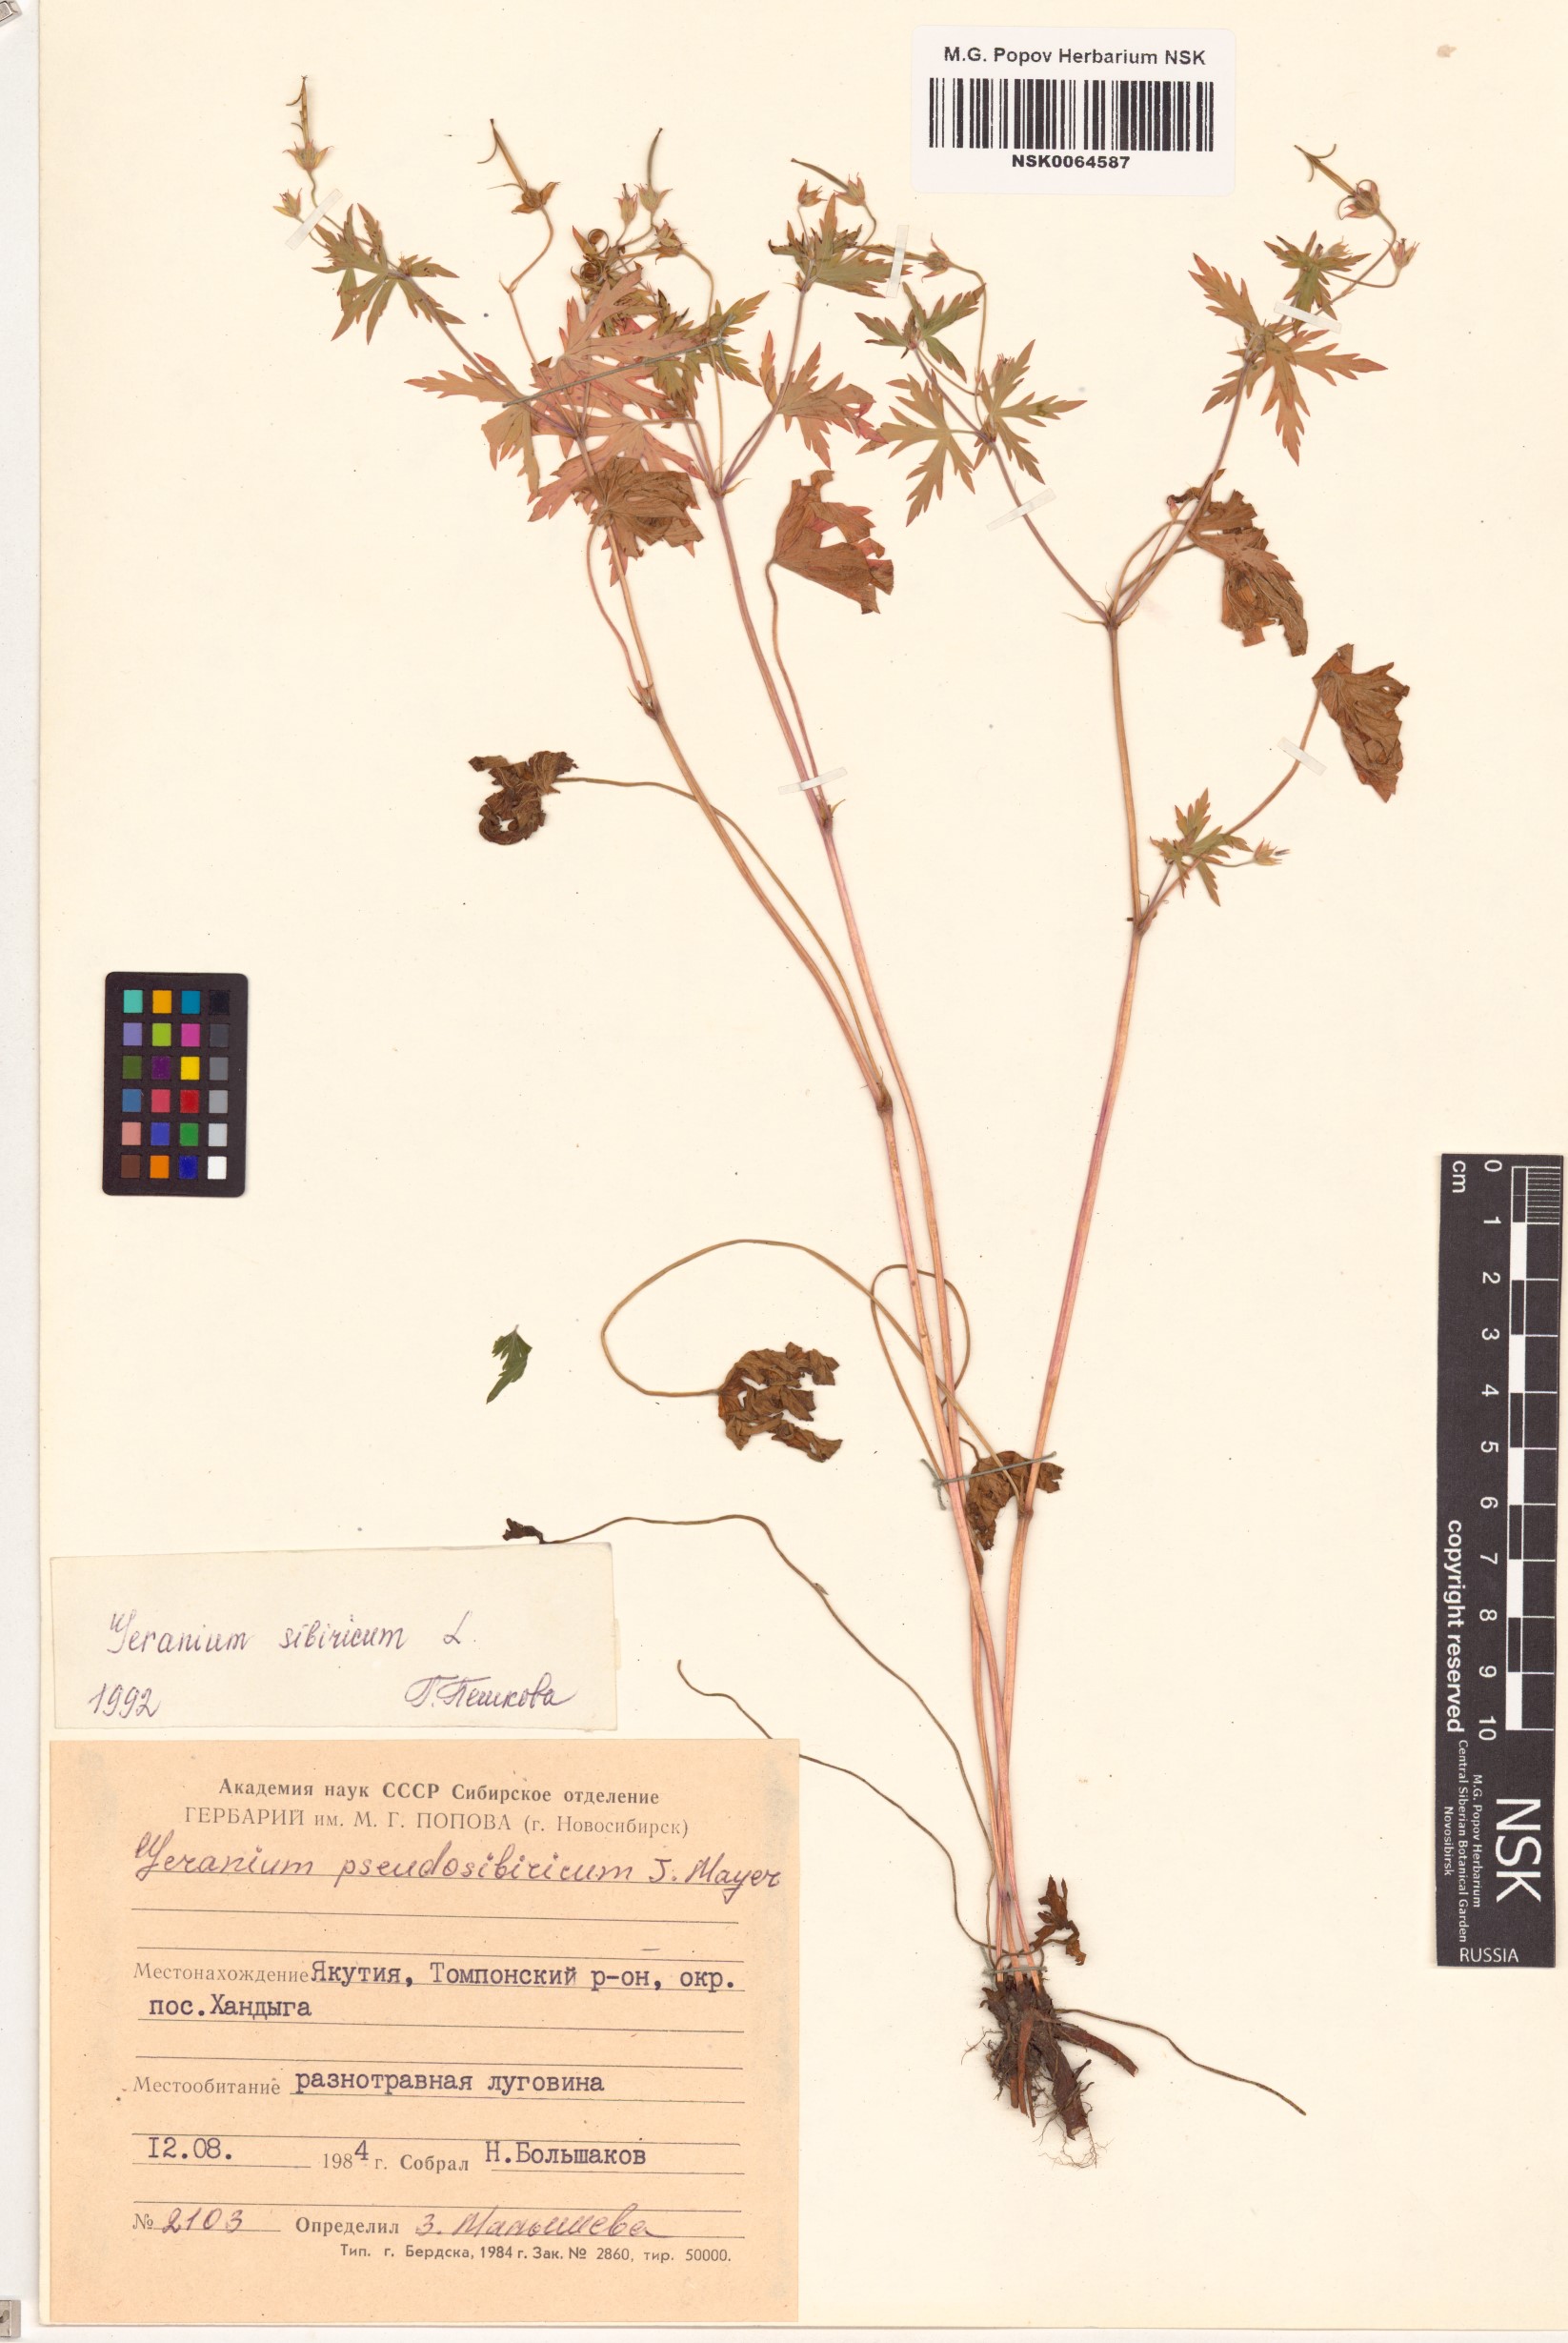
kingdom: Plantae
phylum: Tracheophyta
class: Magnoliopsida
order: Geraniales
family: Geraniaceae
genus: Geranium
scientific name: Geranium sibiricum
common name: Siberian crane's-bill
